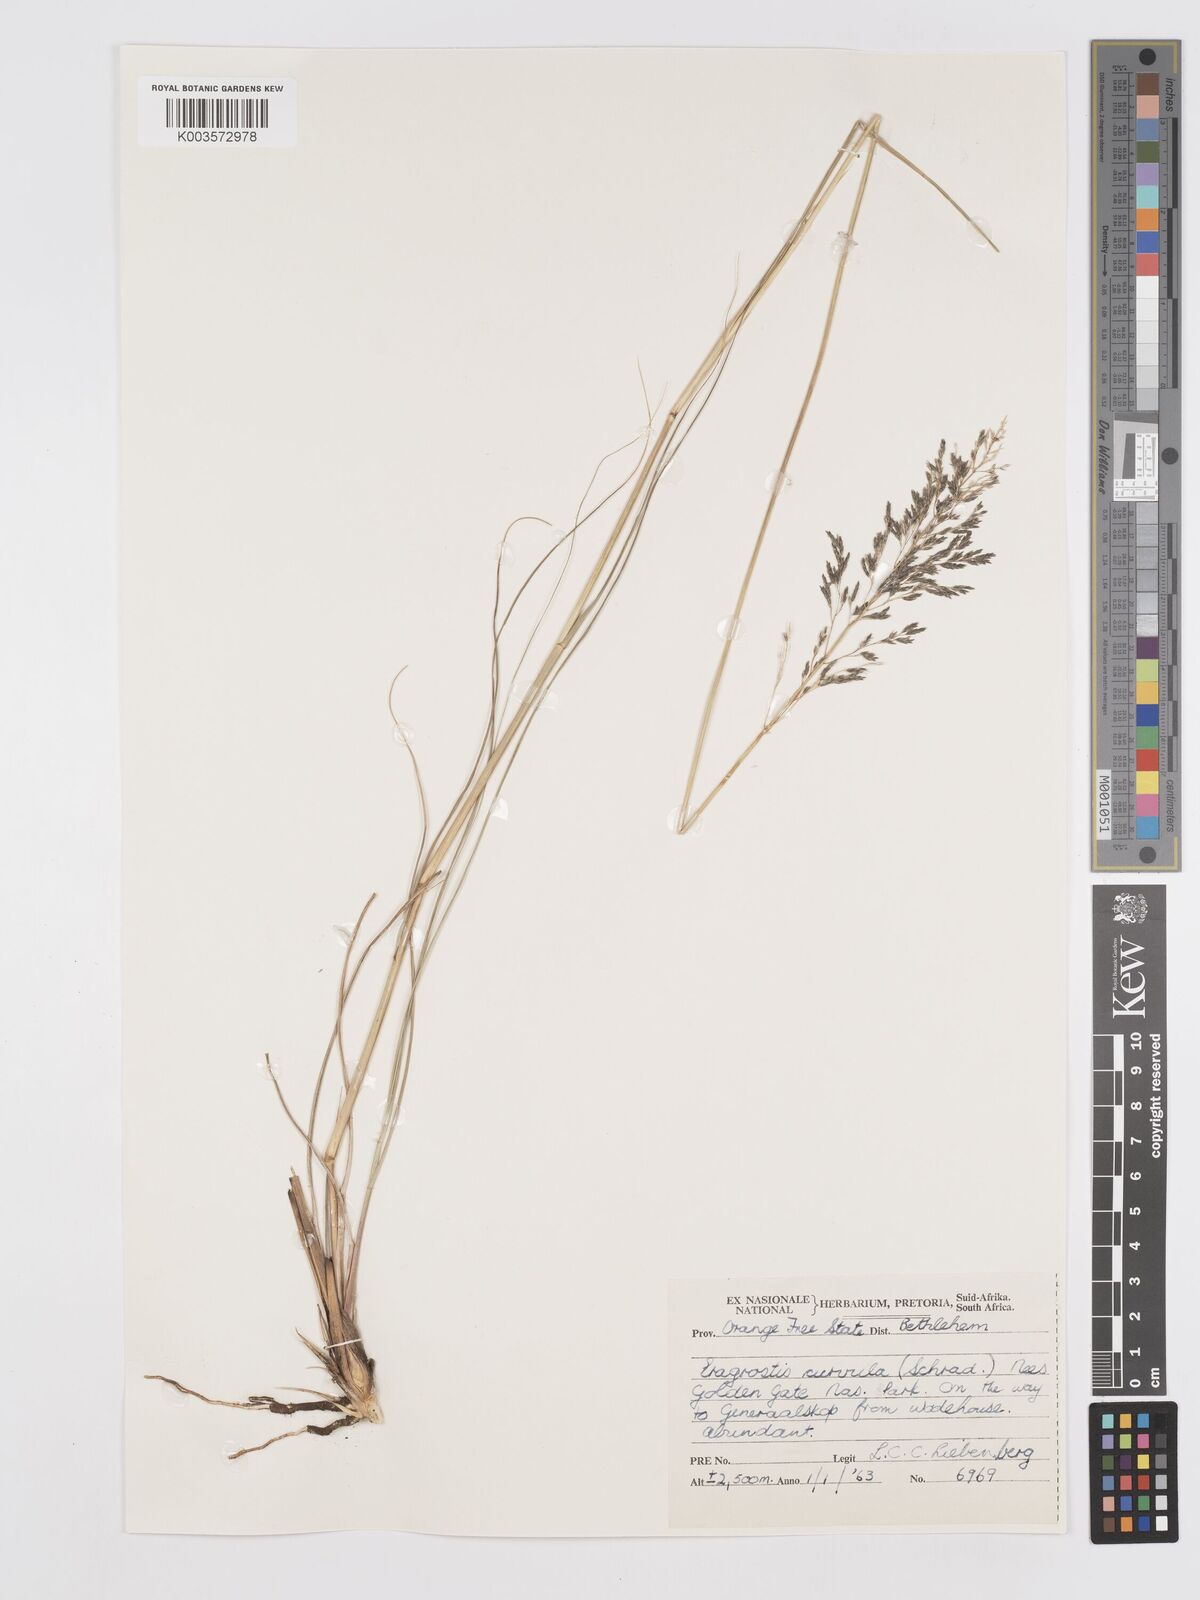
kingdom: Plantae
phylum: Tracheophyta
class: Liliopsida
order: Poales
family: Poaceae
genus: Eragrostis
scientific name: Eragrostis curvula
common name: African love-grass
